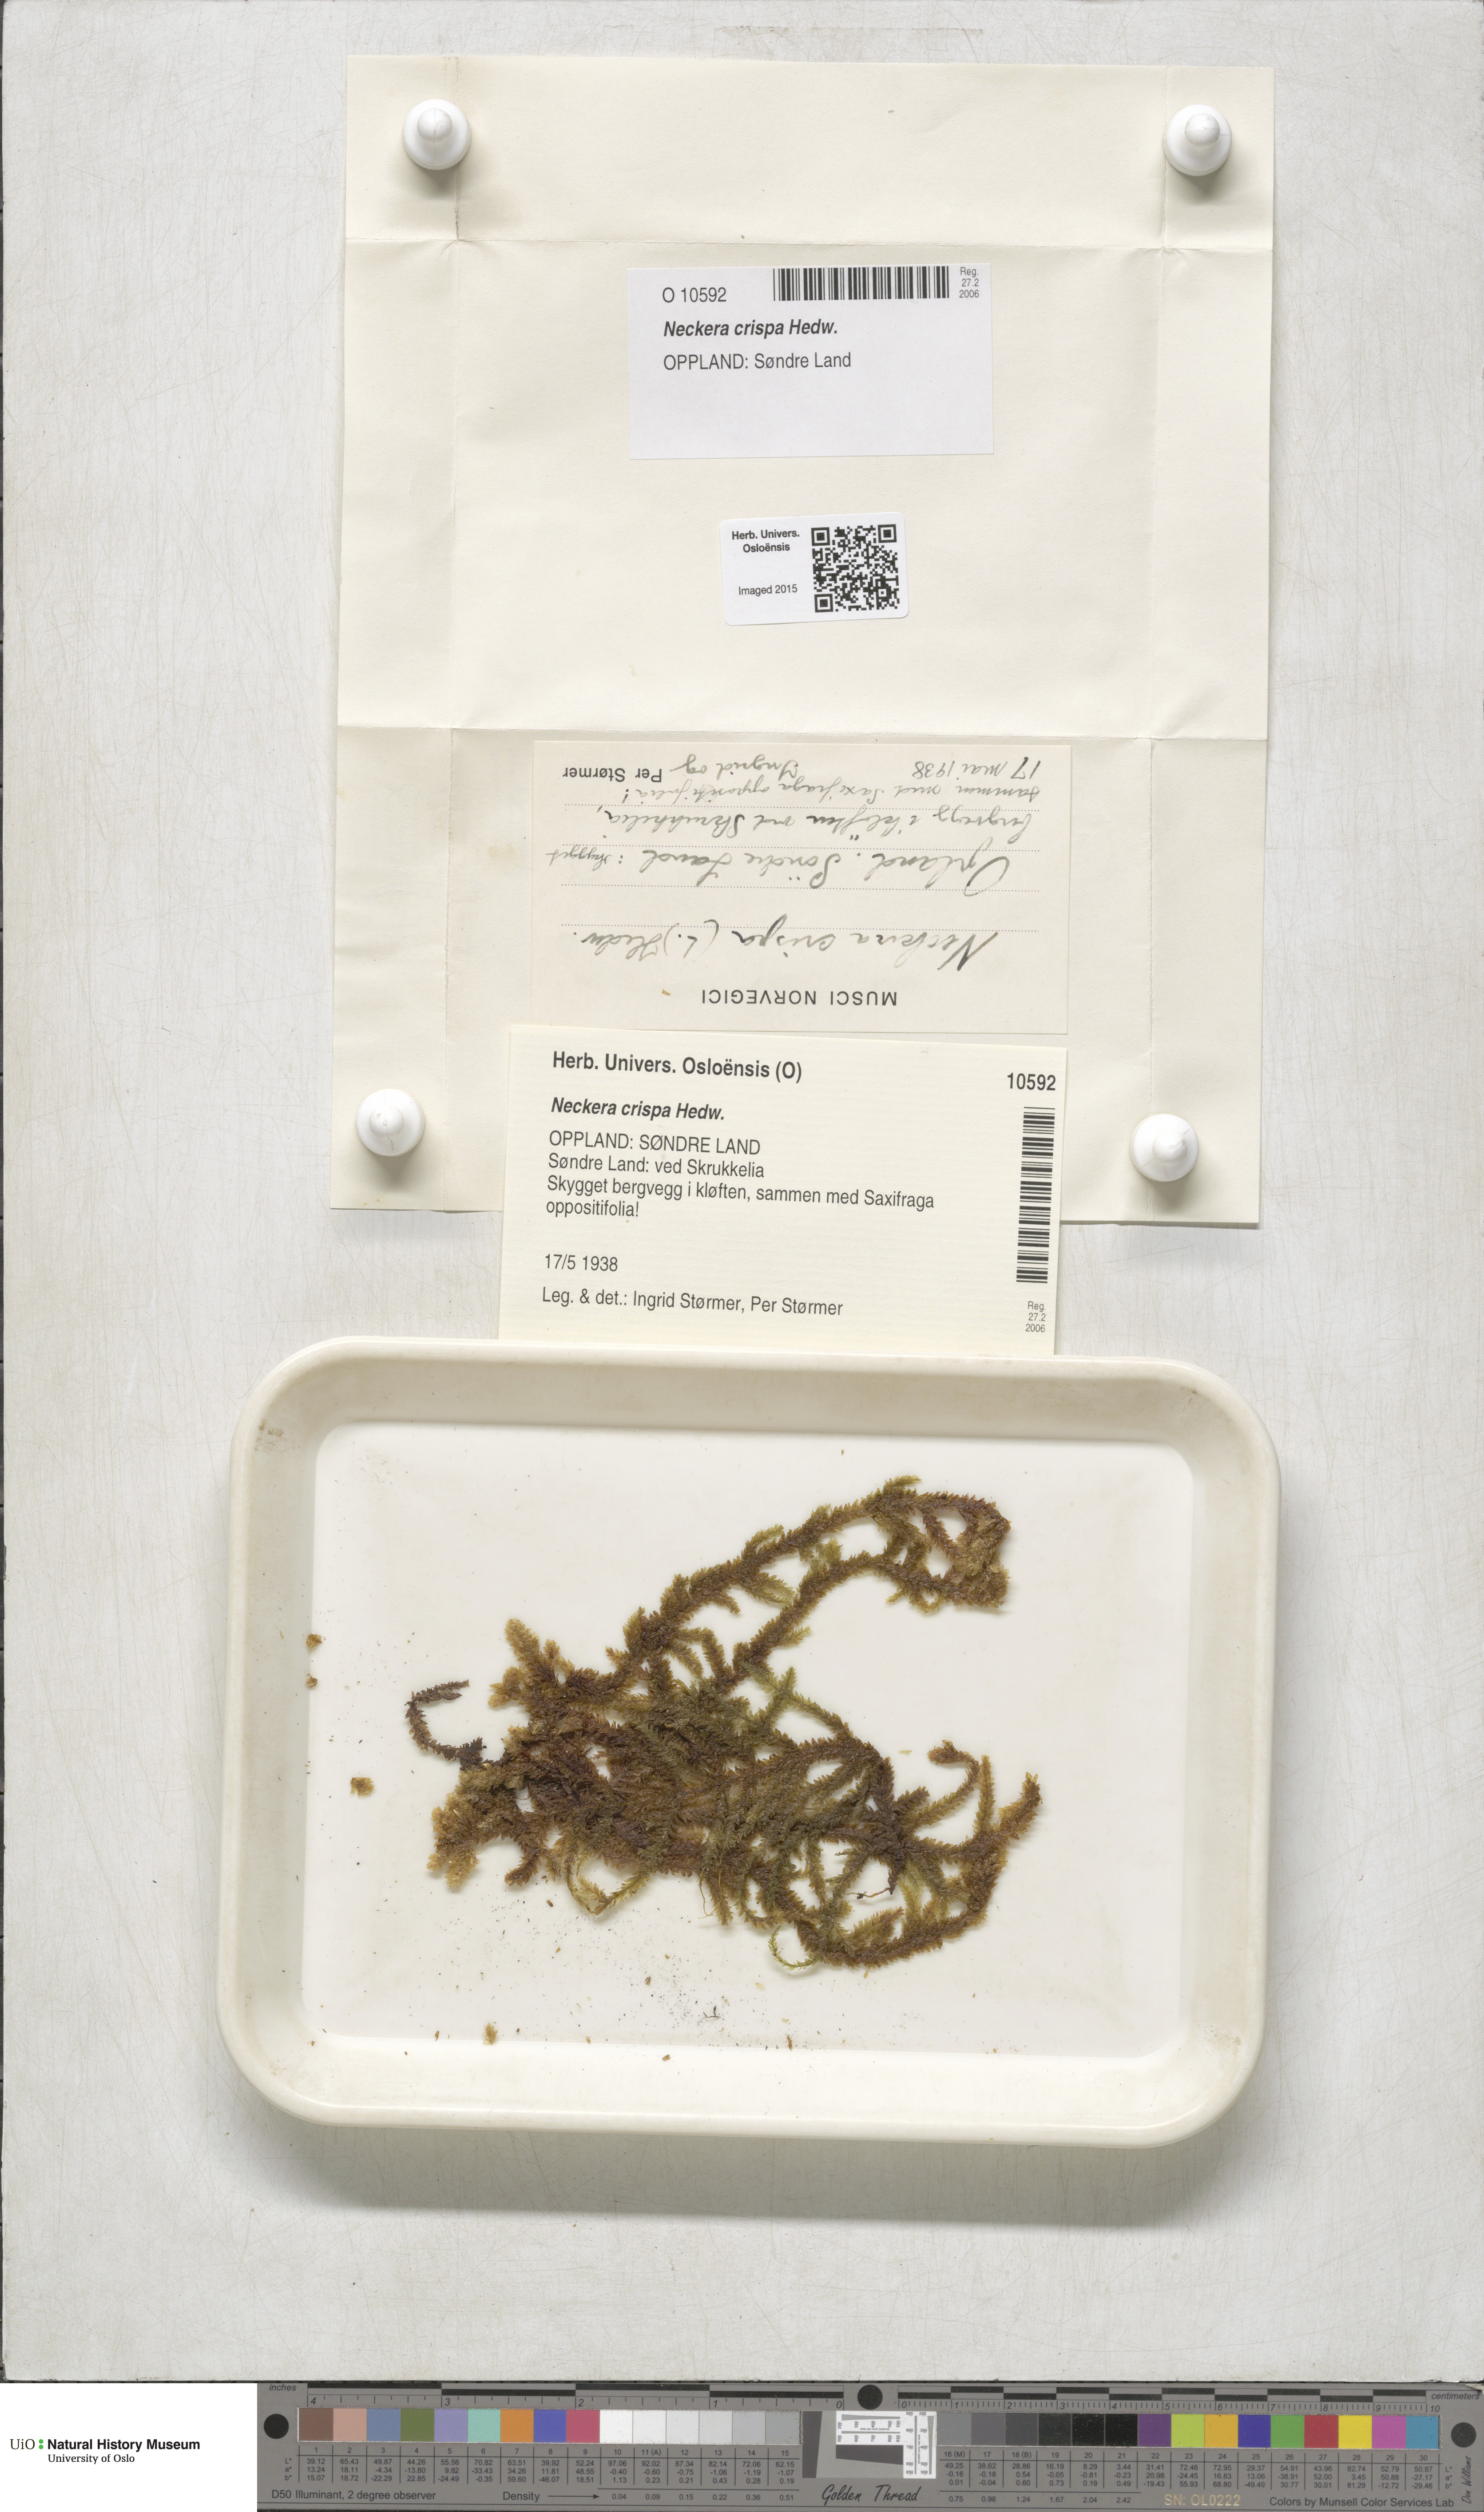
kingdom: Plantae
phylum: Bryophyta
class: Bryopsida
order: Hypnales
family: Neckeraceae
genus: Exsertotheca
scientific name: Exsertotheca crispa
